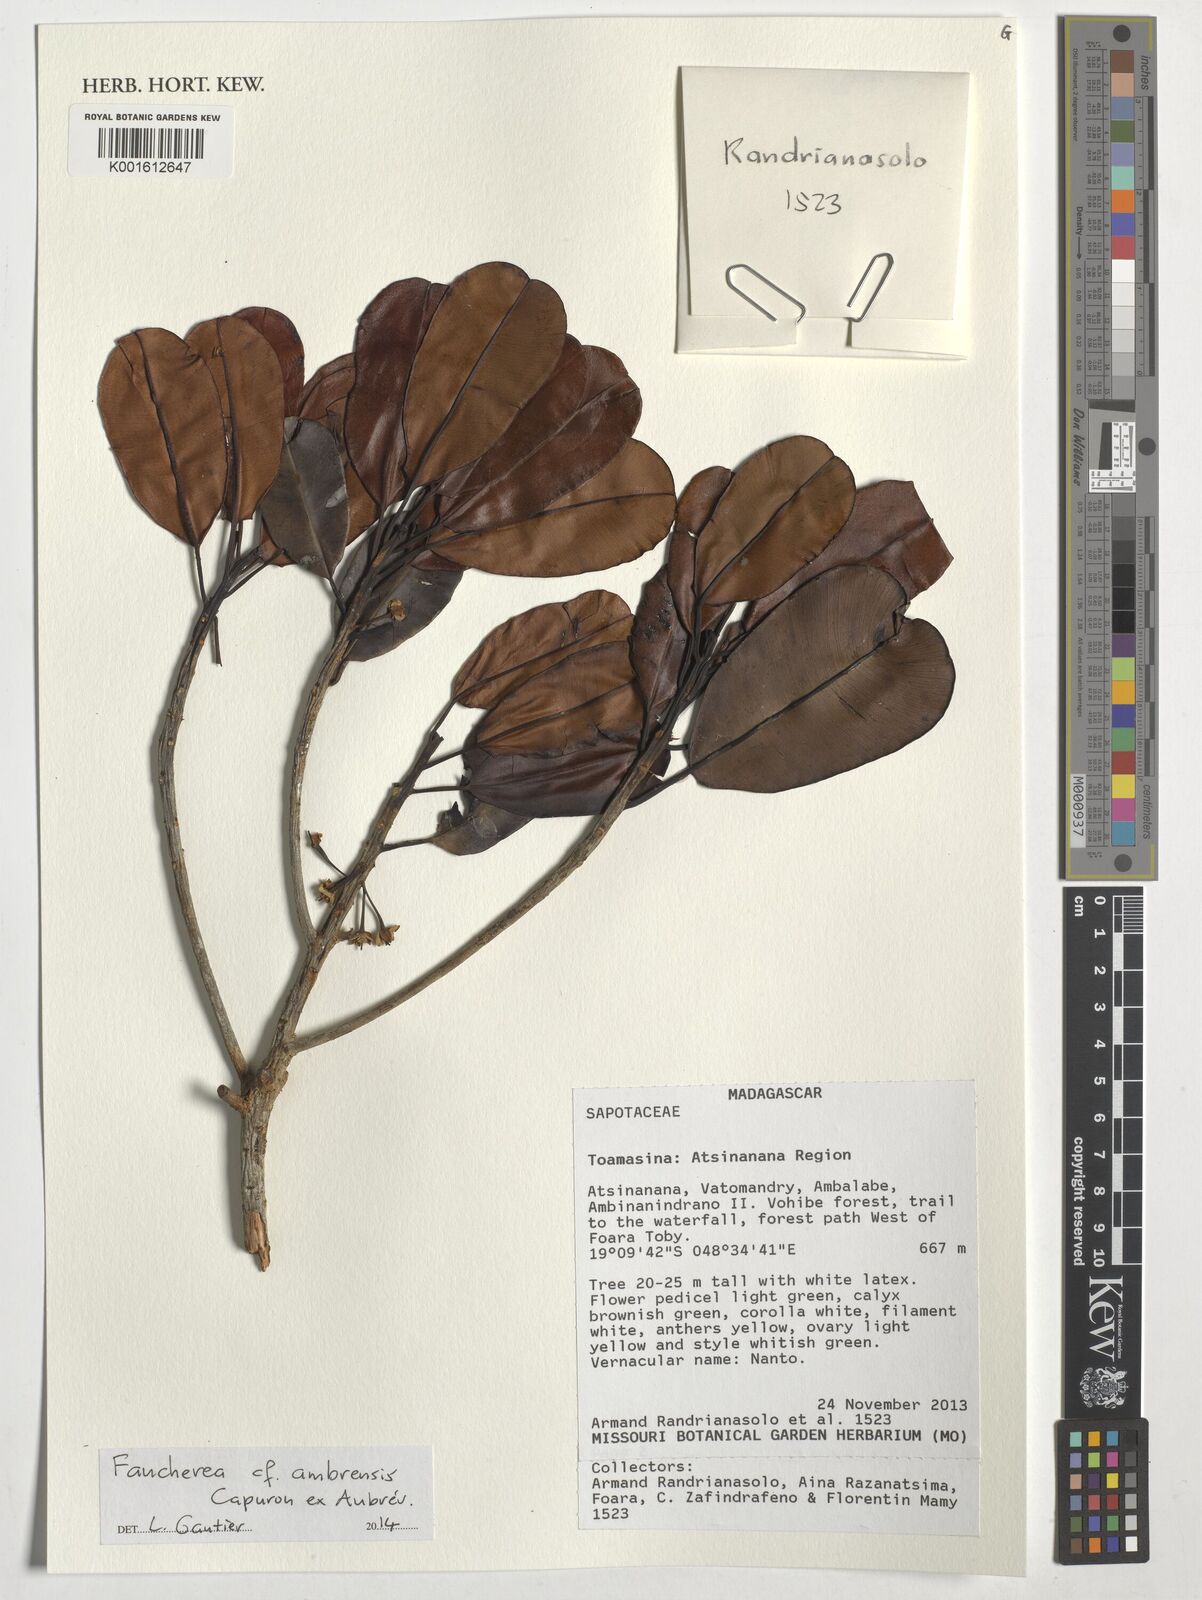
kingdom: Plantae
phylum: Tracheophyta
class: Magnoliopsida
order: Ericales
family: Sapotaceae
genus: Faucherea
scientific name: Faucherea ambrensis
